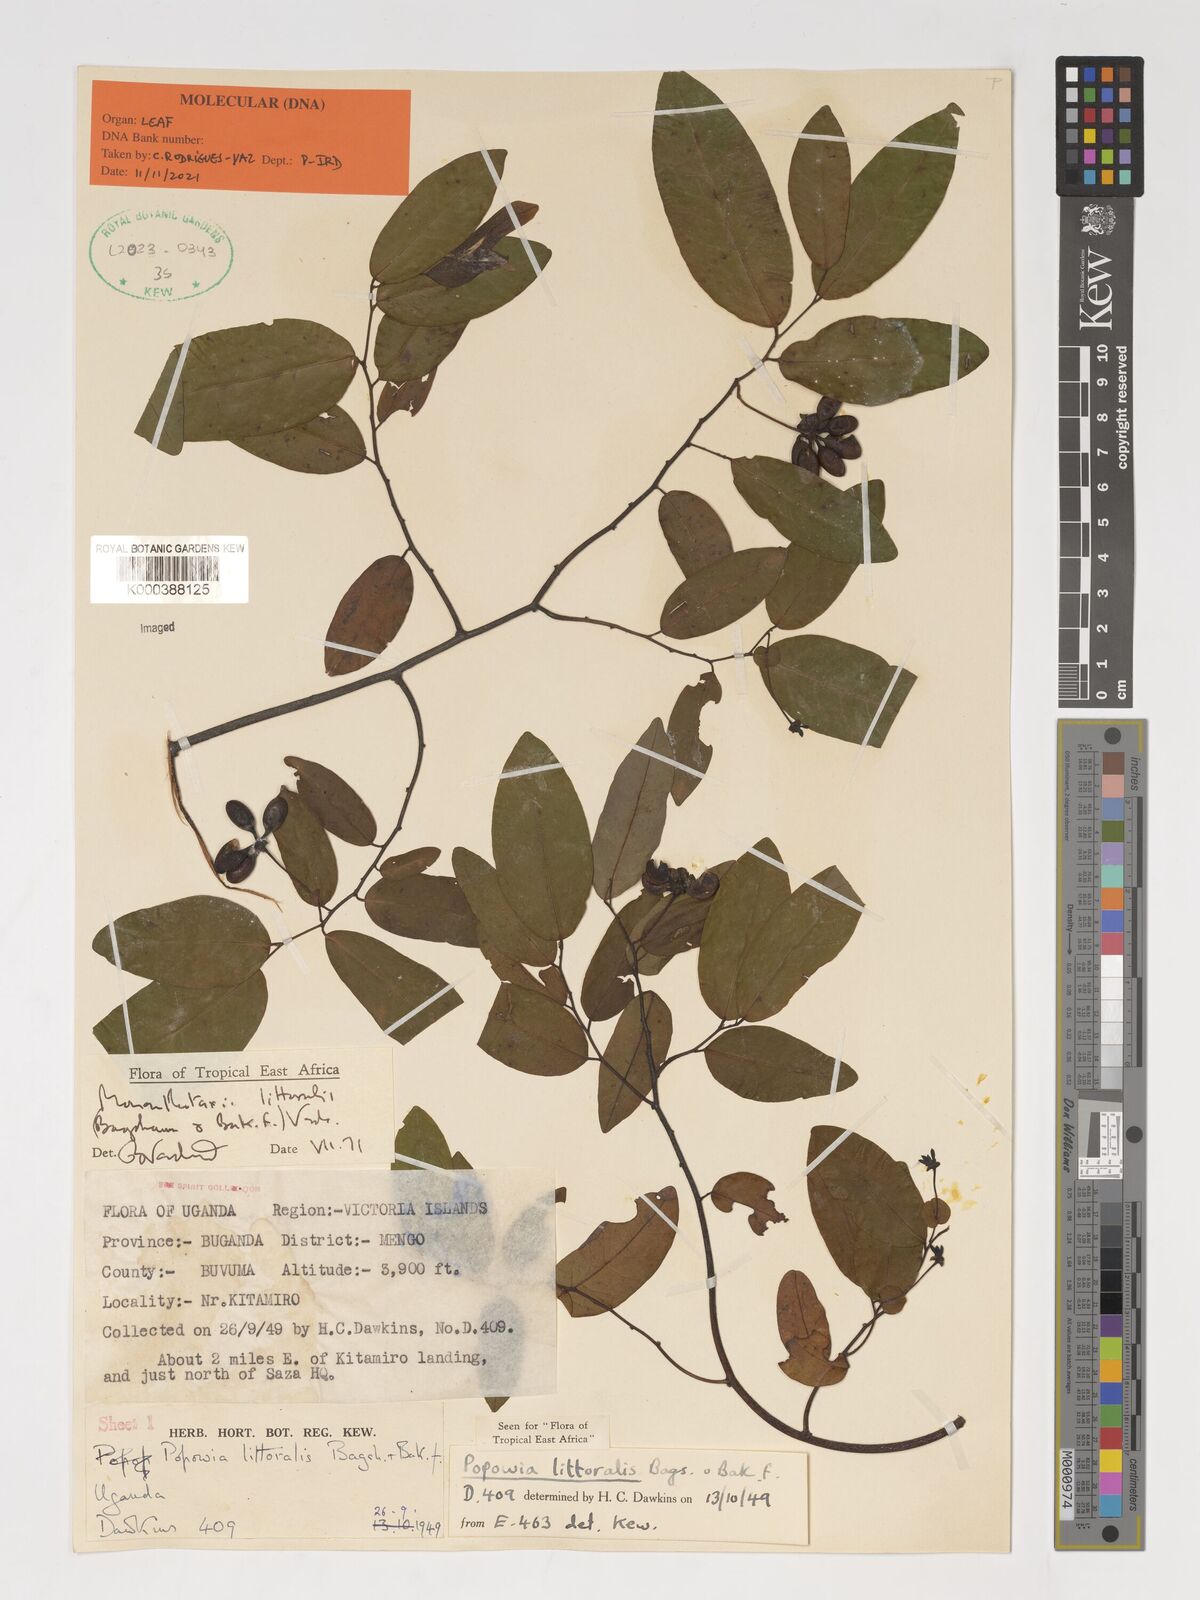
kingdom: Plantae
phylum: Tracheophyta
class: Magnoliopsida
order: Magnoliales
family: Annonaceae
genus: Monanthotaxis
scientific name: Monanthotaxis littoralis
